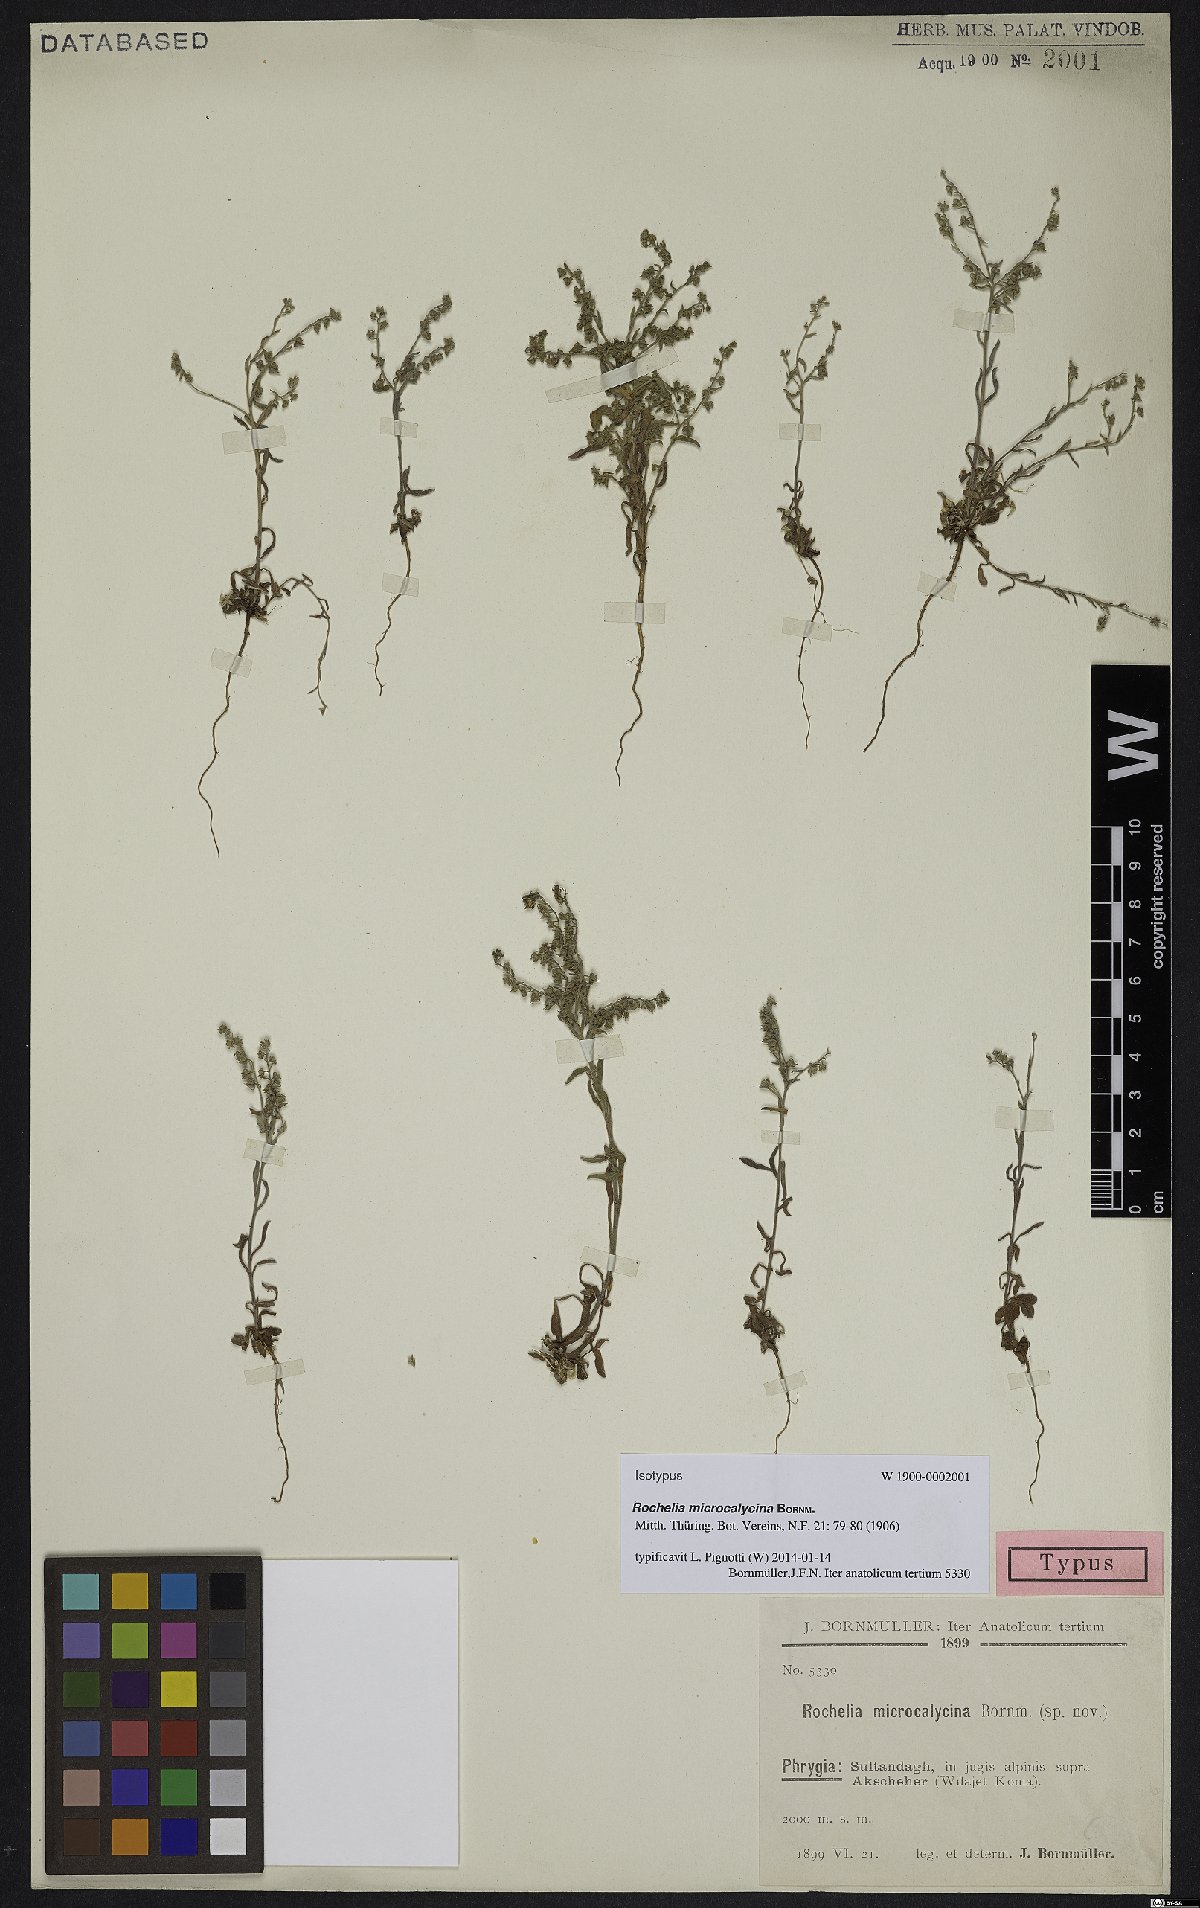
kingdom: Plantae
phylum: Tracheophyta
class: Magnoliopsida
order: Boraginales
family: Boraginaceae
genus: Rochelia
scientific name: Rochelia disperma
